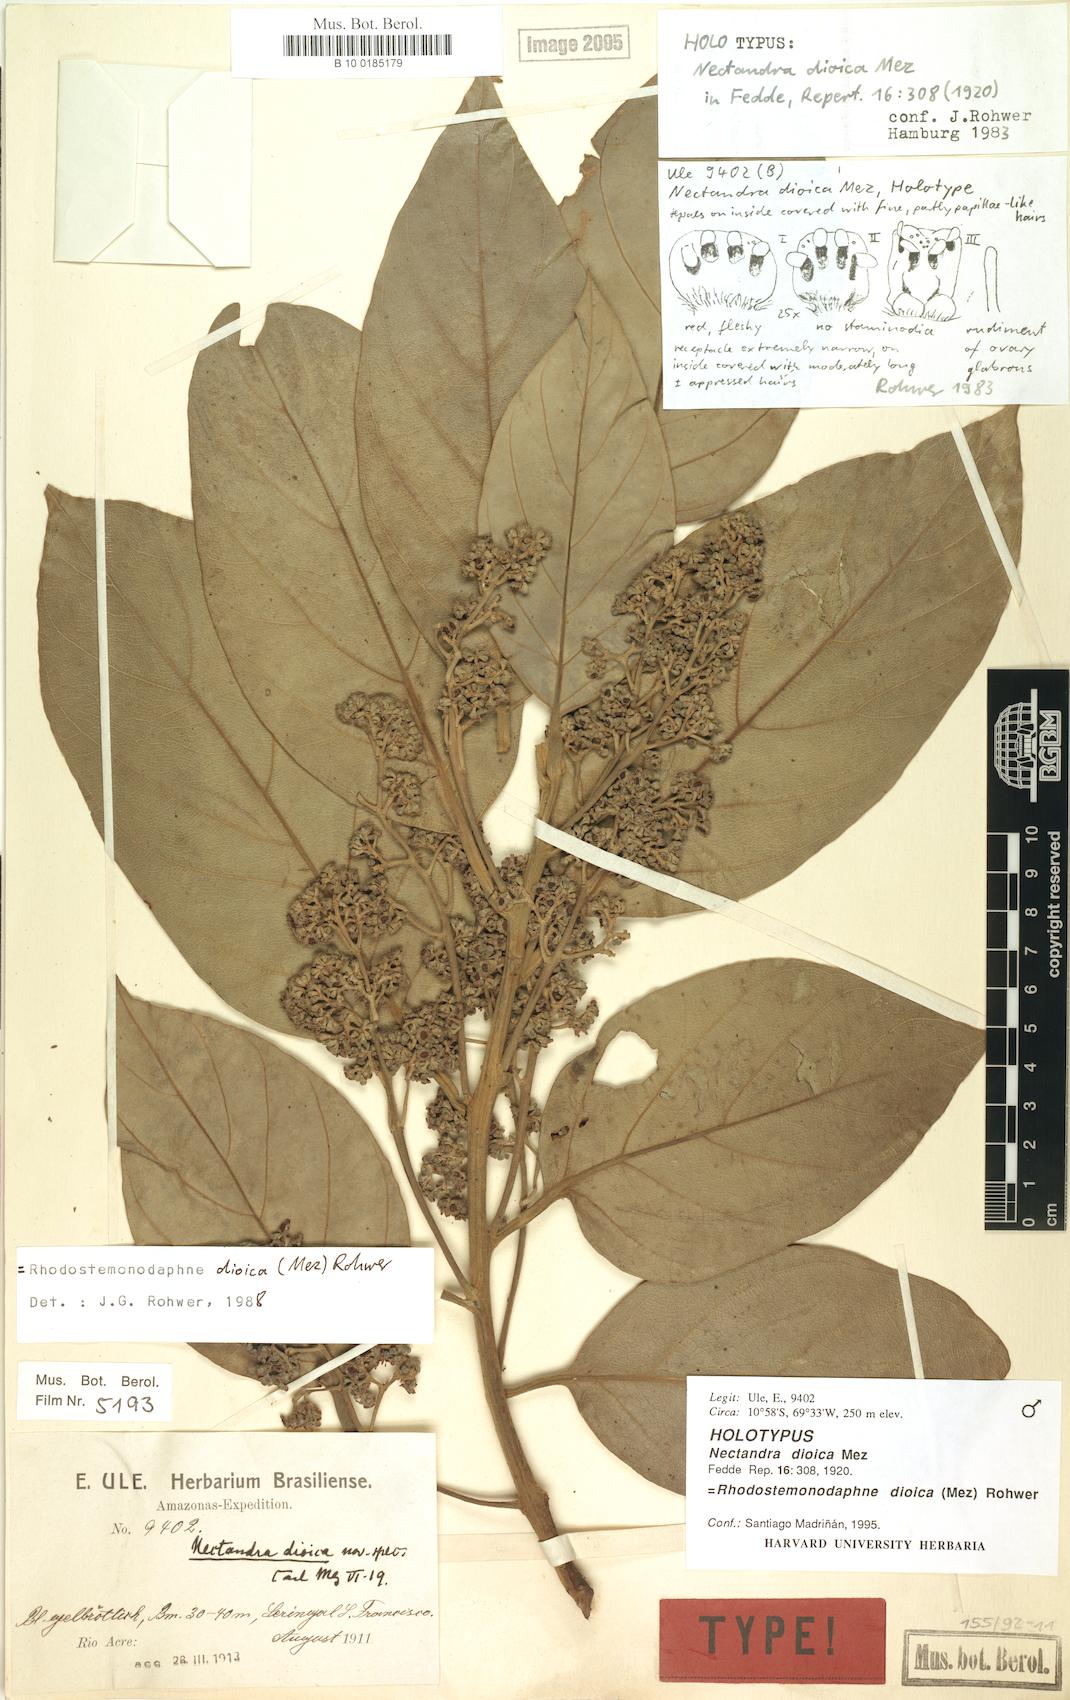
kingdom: Plantae
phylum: Tracheophyta
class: Magnoliopsida
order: Laurales
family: Lauraceae
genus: Rhodostemonodaphne
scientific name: Rhodostemonodaphne dioica
